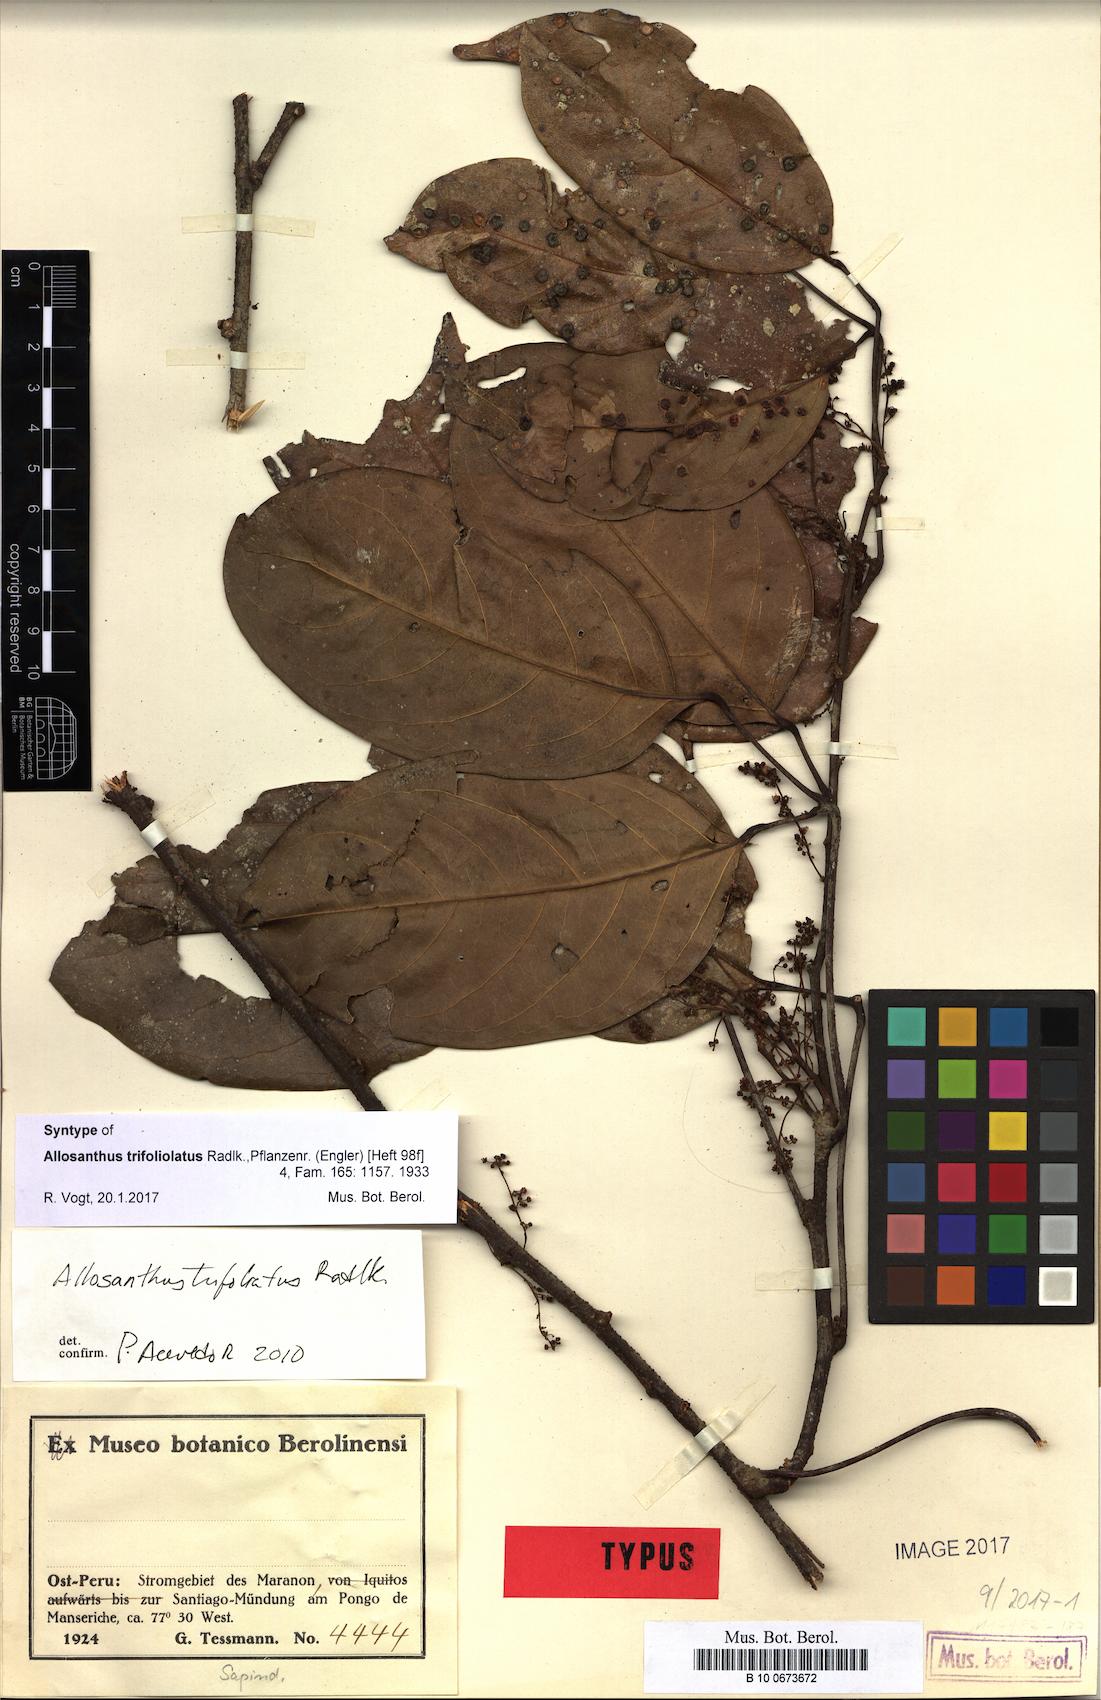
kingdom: Plantae
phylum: Tracheophyta
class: Magnoliopsida
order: Sapindales
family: Sapindaceae
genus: Thinouia
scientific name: Thinouia trifoliolata
